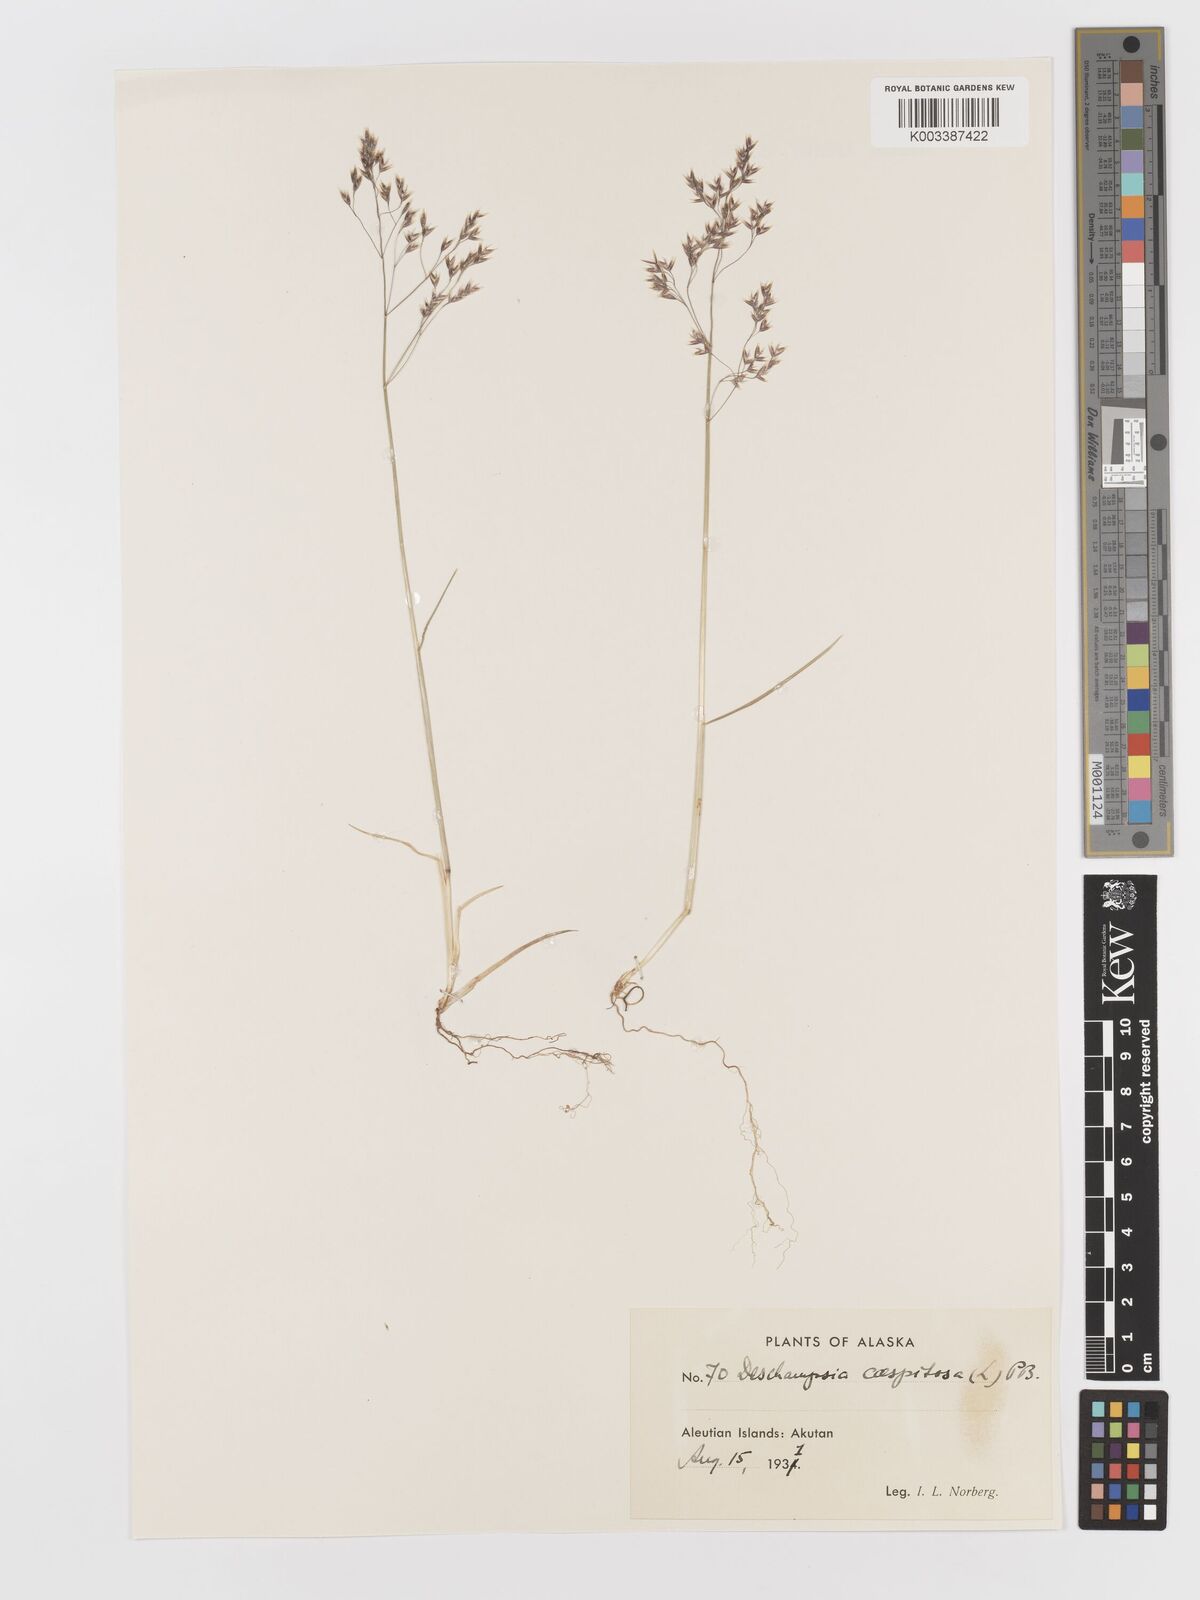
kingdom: Plantae
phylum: Tracheophyta
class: Liliopsida
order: Poales
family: Poaceae
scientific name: Poaceae
